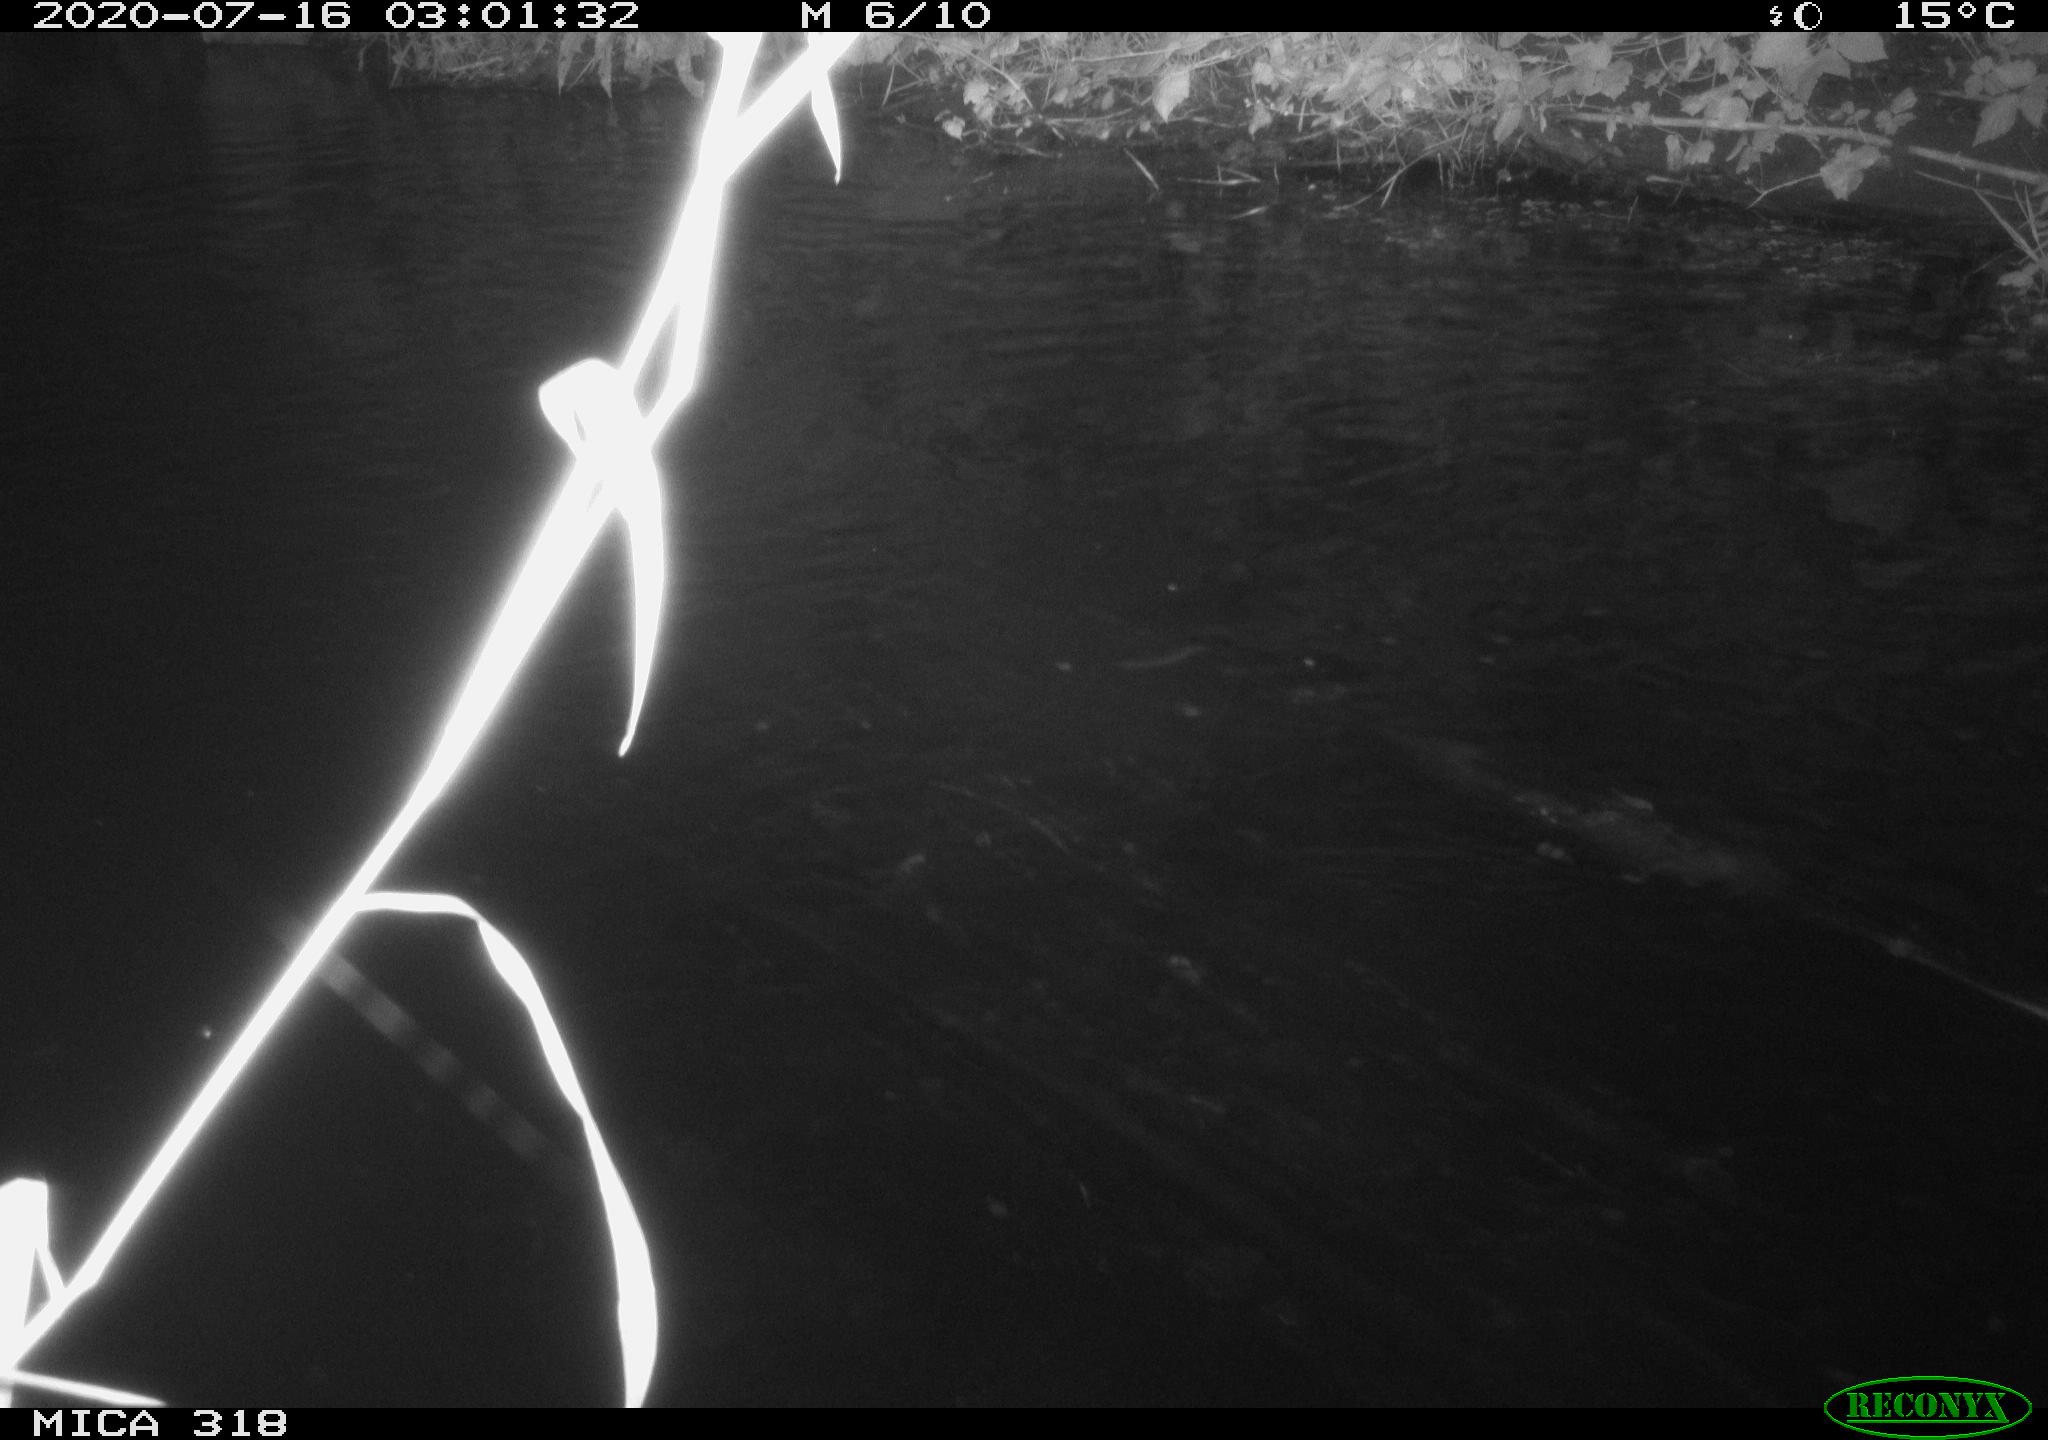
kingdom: Animalia
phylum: Chordata
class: Aves
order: Anseriformes
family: Anatidae
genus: Mareca
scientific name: Mareca strepera
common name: Gadwall
